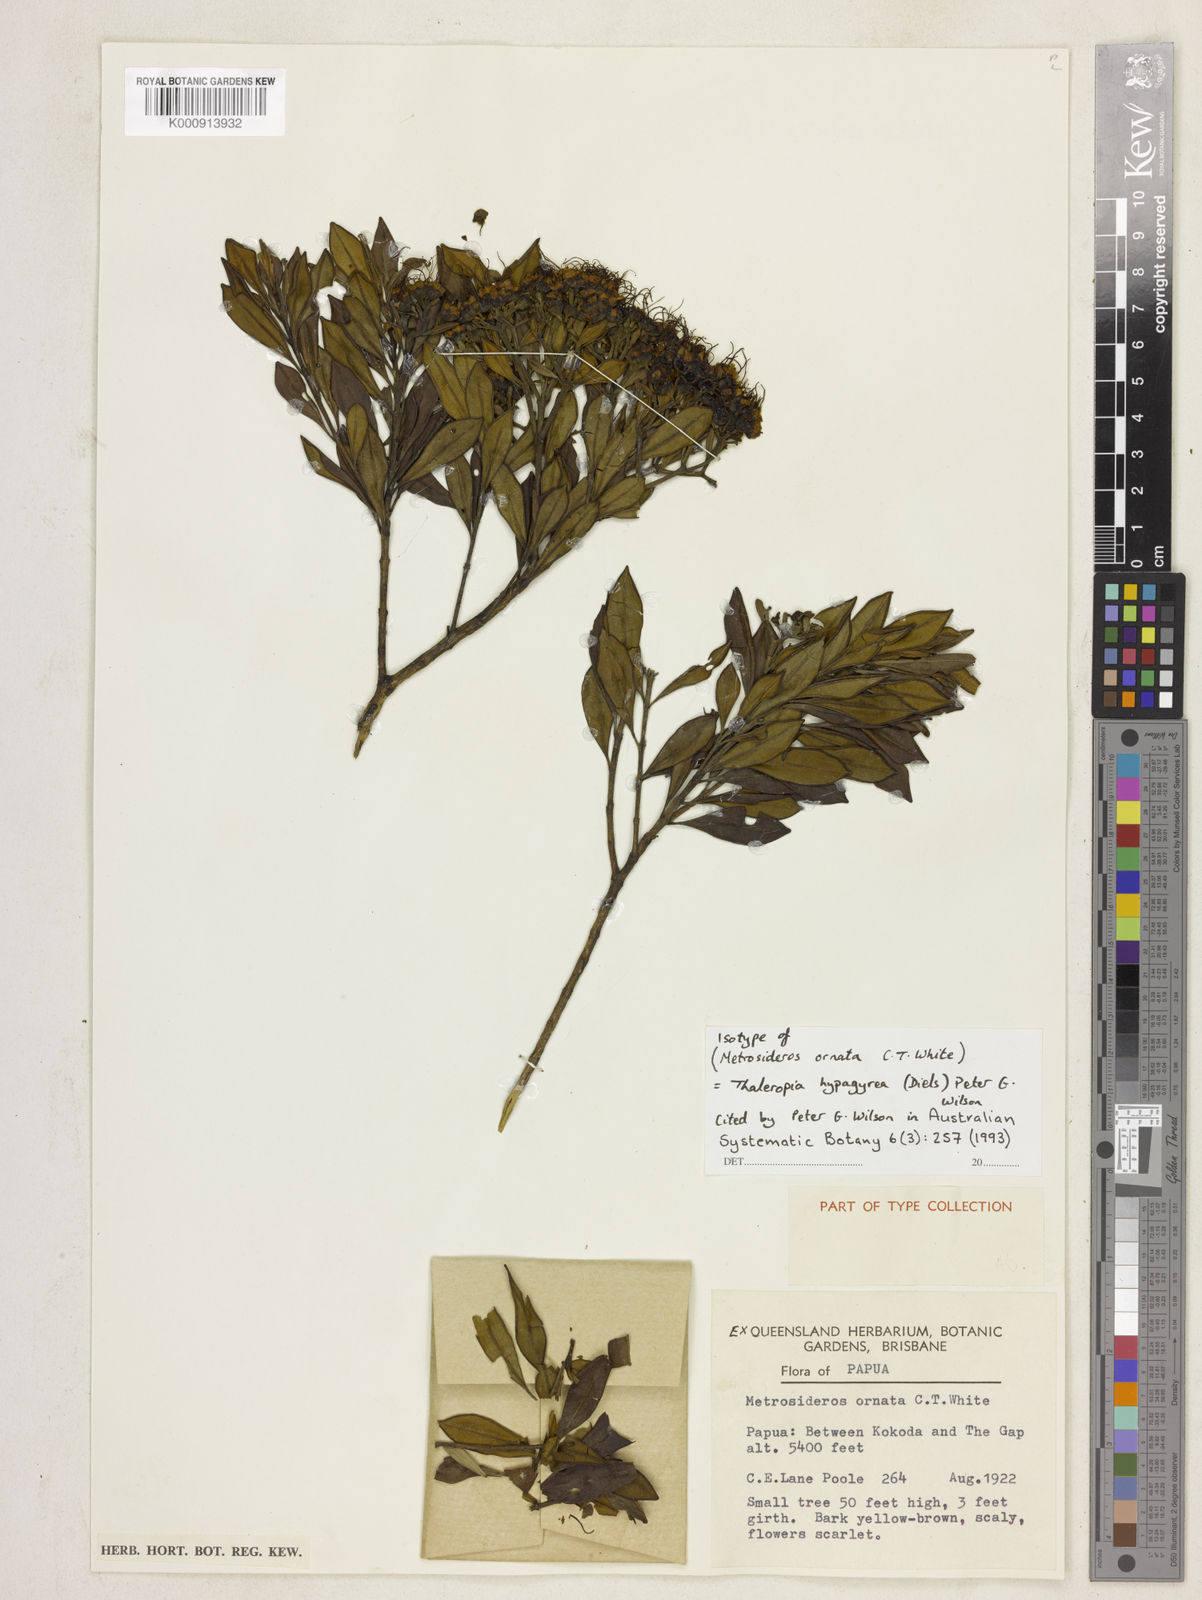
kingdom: Plantae
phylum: Tracheophyta
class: Magnoliopsida
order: Myrtales
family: Myrtaceae
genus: Thaleropia
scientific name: Thaleropia hypargyrea
